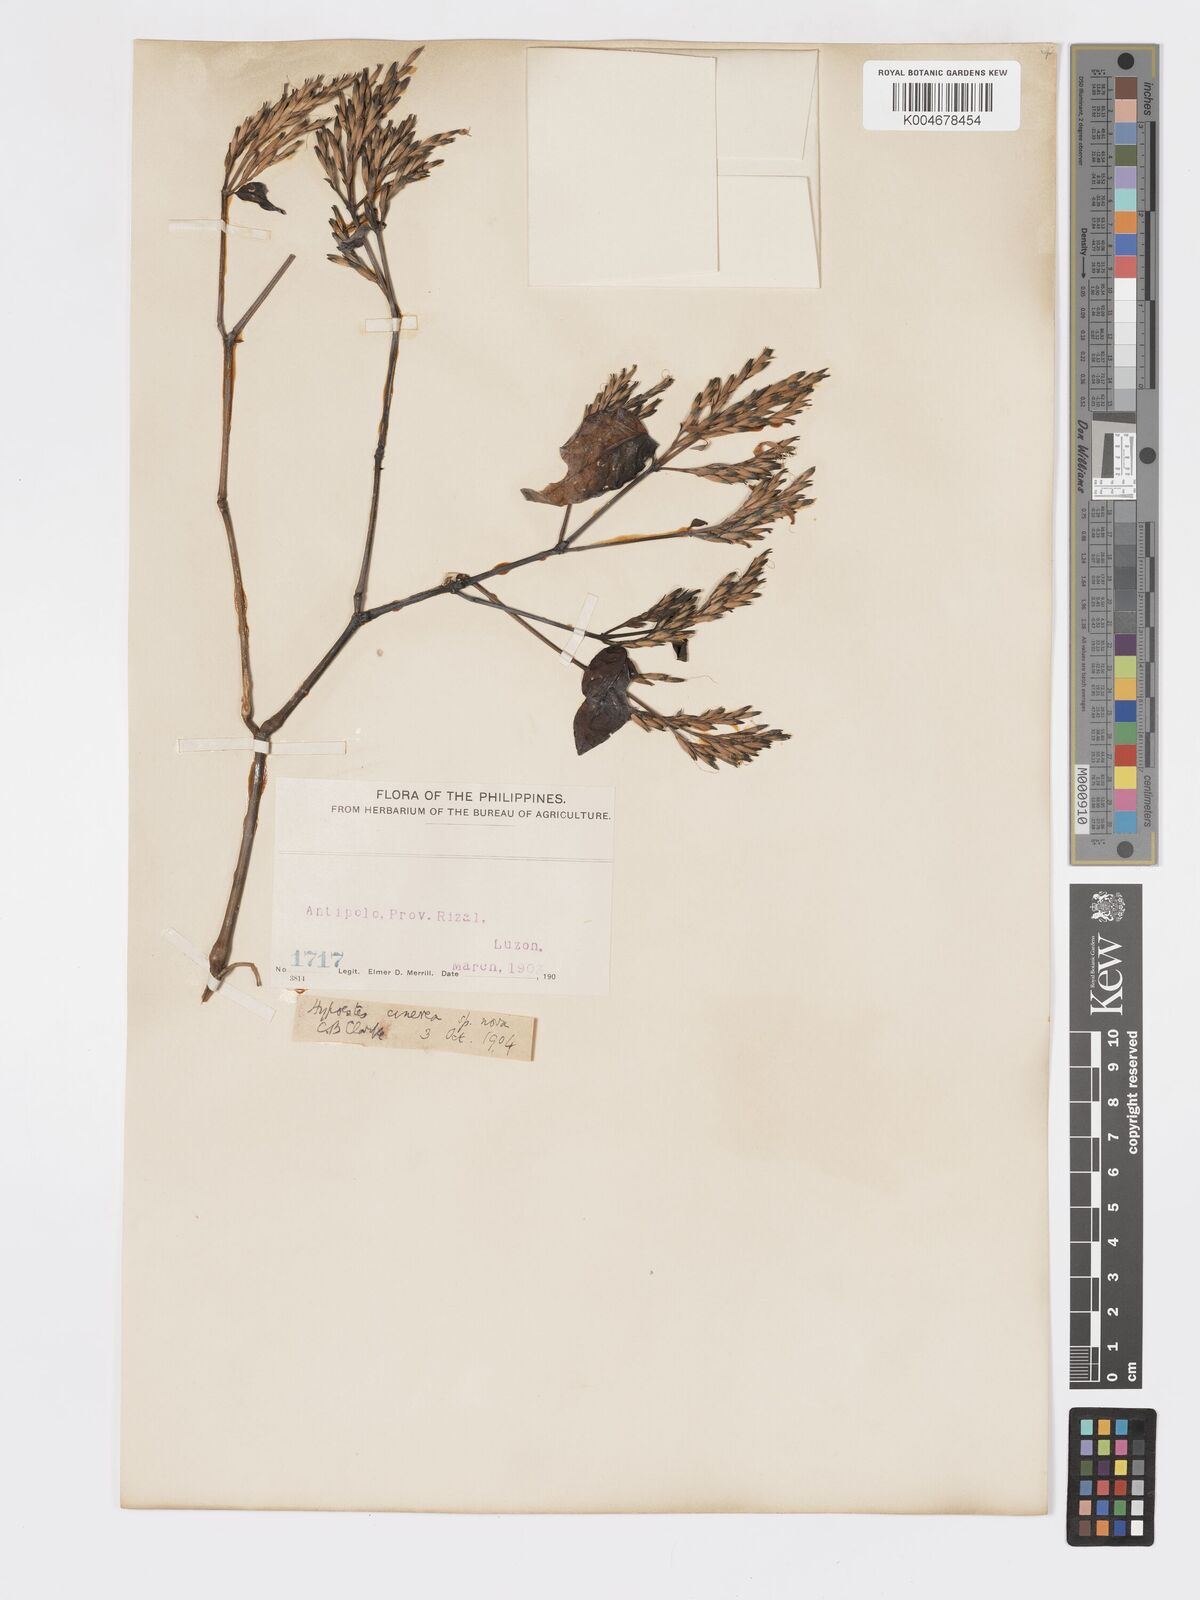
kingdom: Plantae
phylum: Tracheophyta
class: Magnoliopsida
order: Lamiales
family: Acanthaceae
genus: Hypoestes
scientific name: Hypoestes
